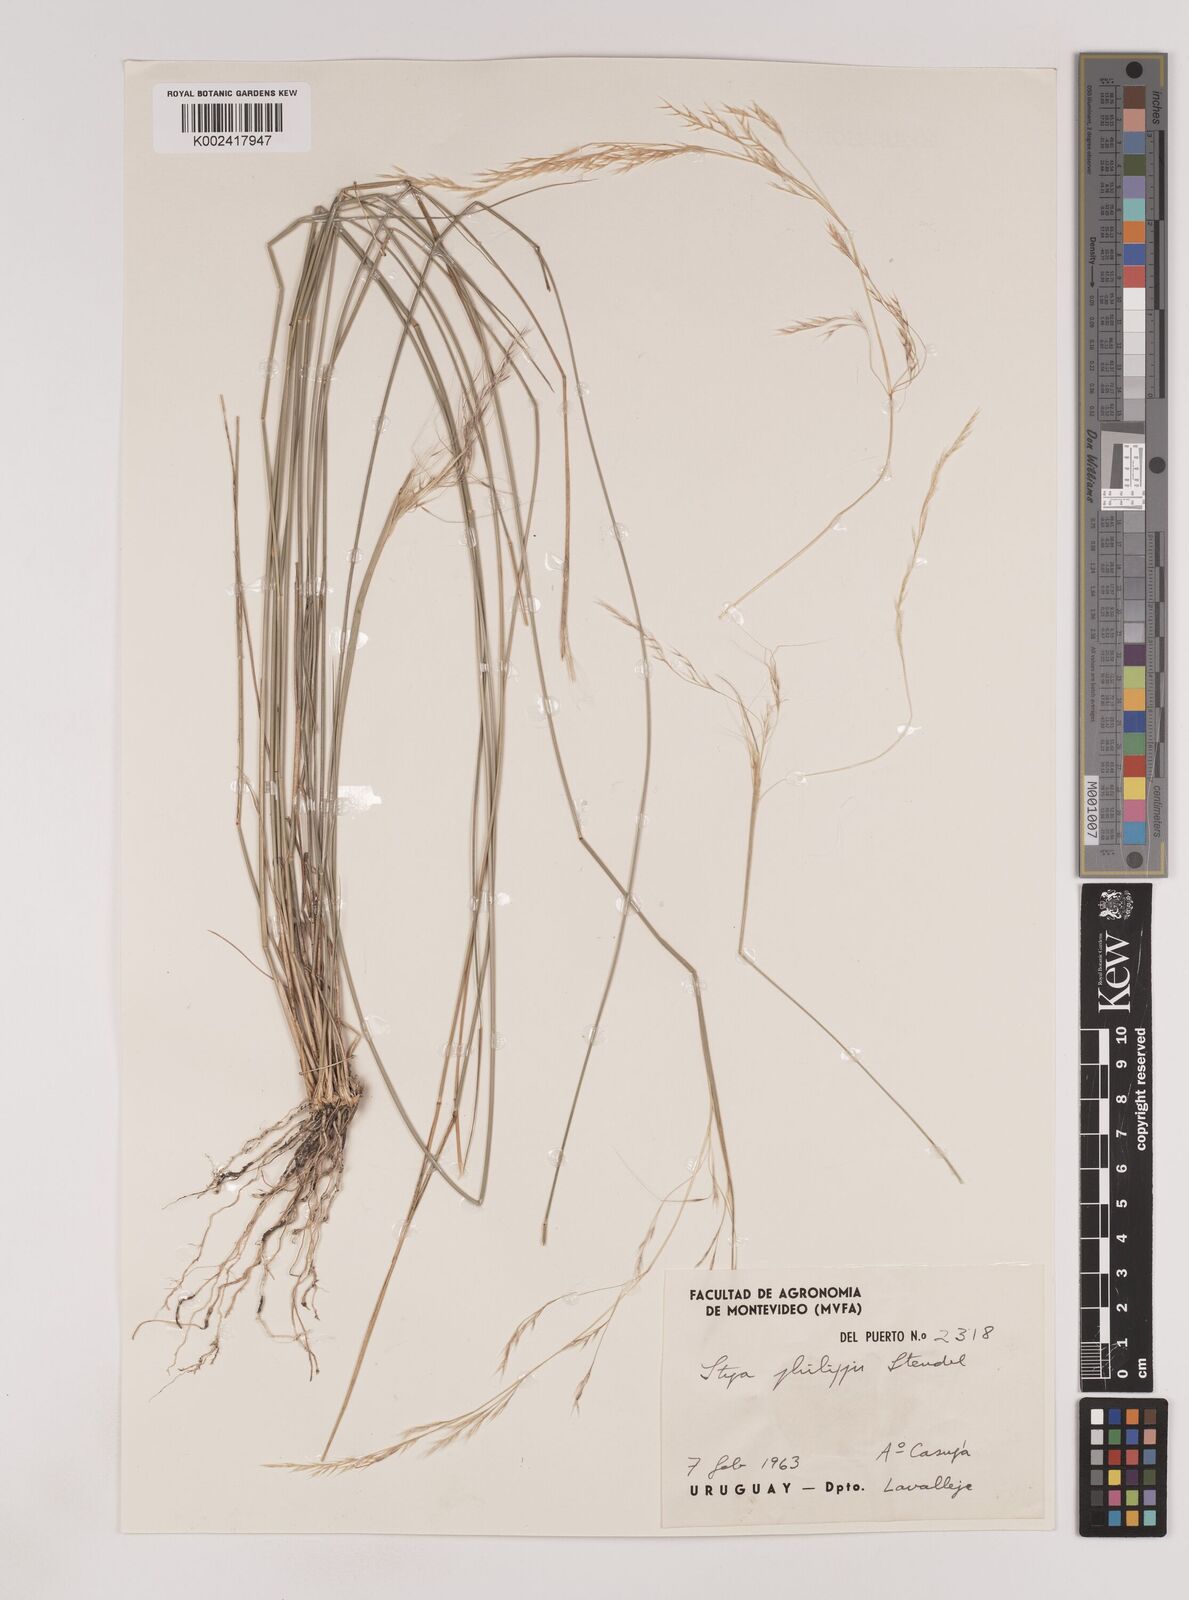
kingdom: Plantae
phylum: Tracheophyta
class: Liliopsida
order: Poales
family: Poaceae
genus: Nassella
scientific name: Nassella philippii
